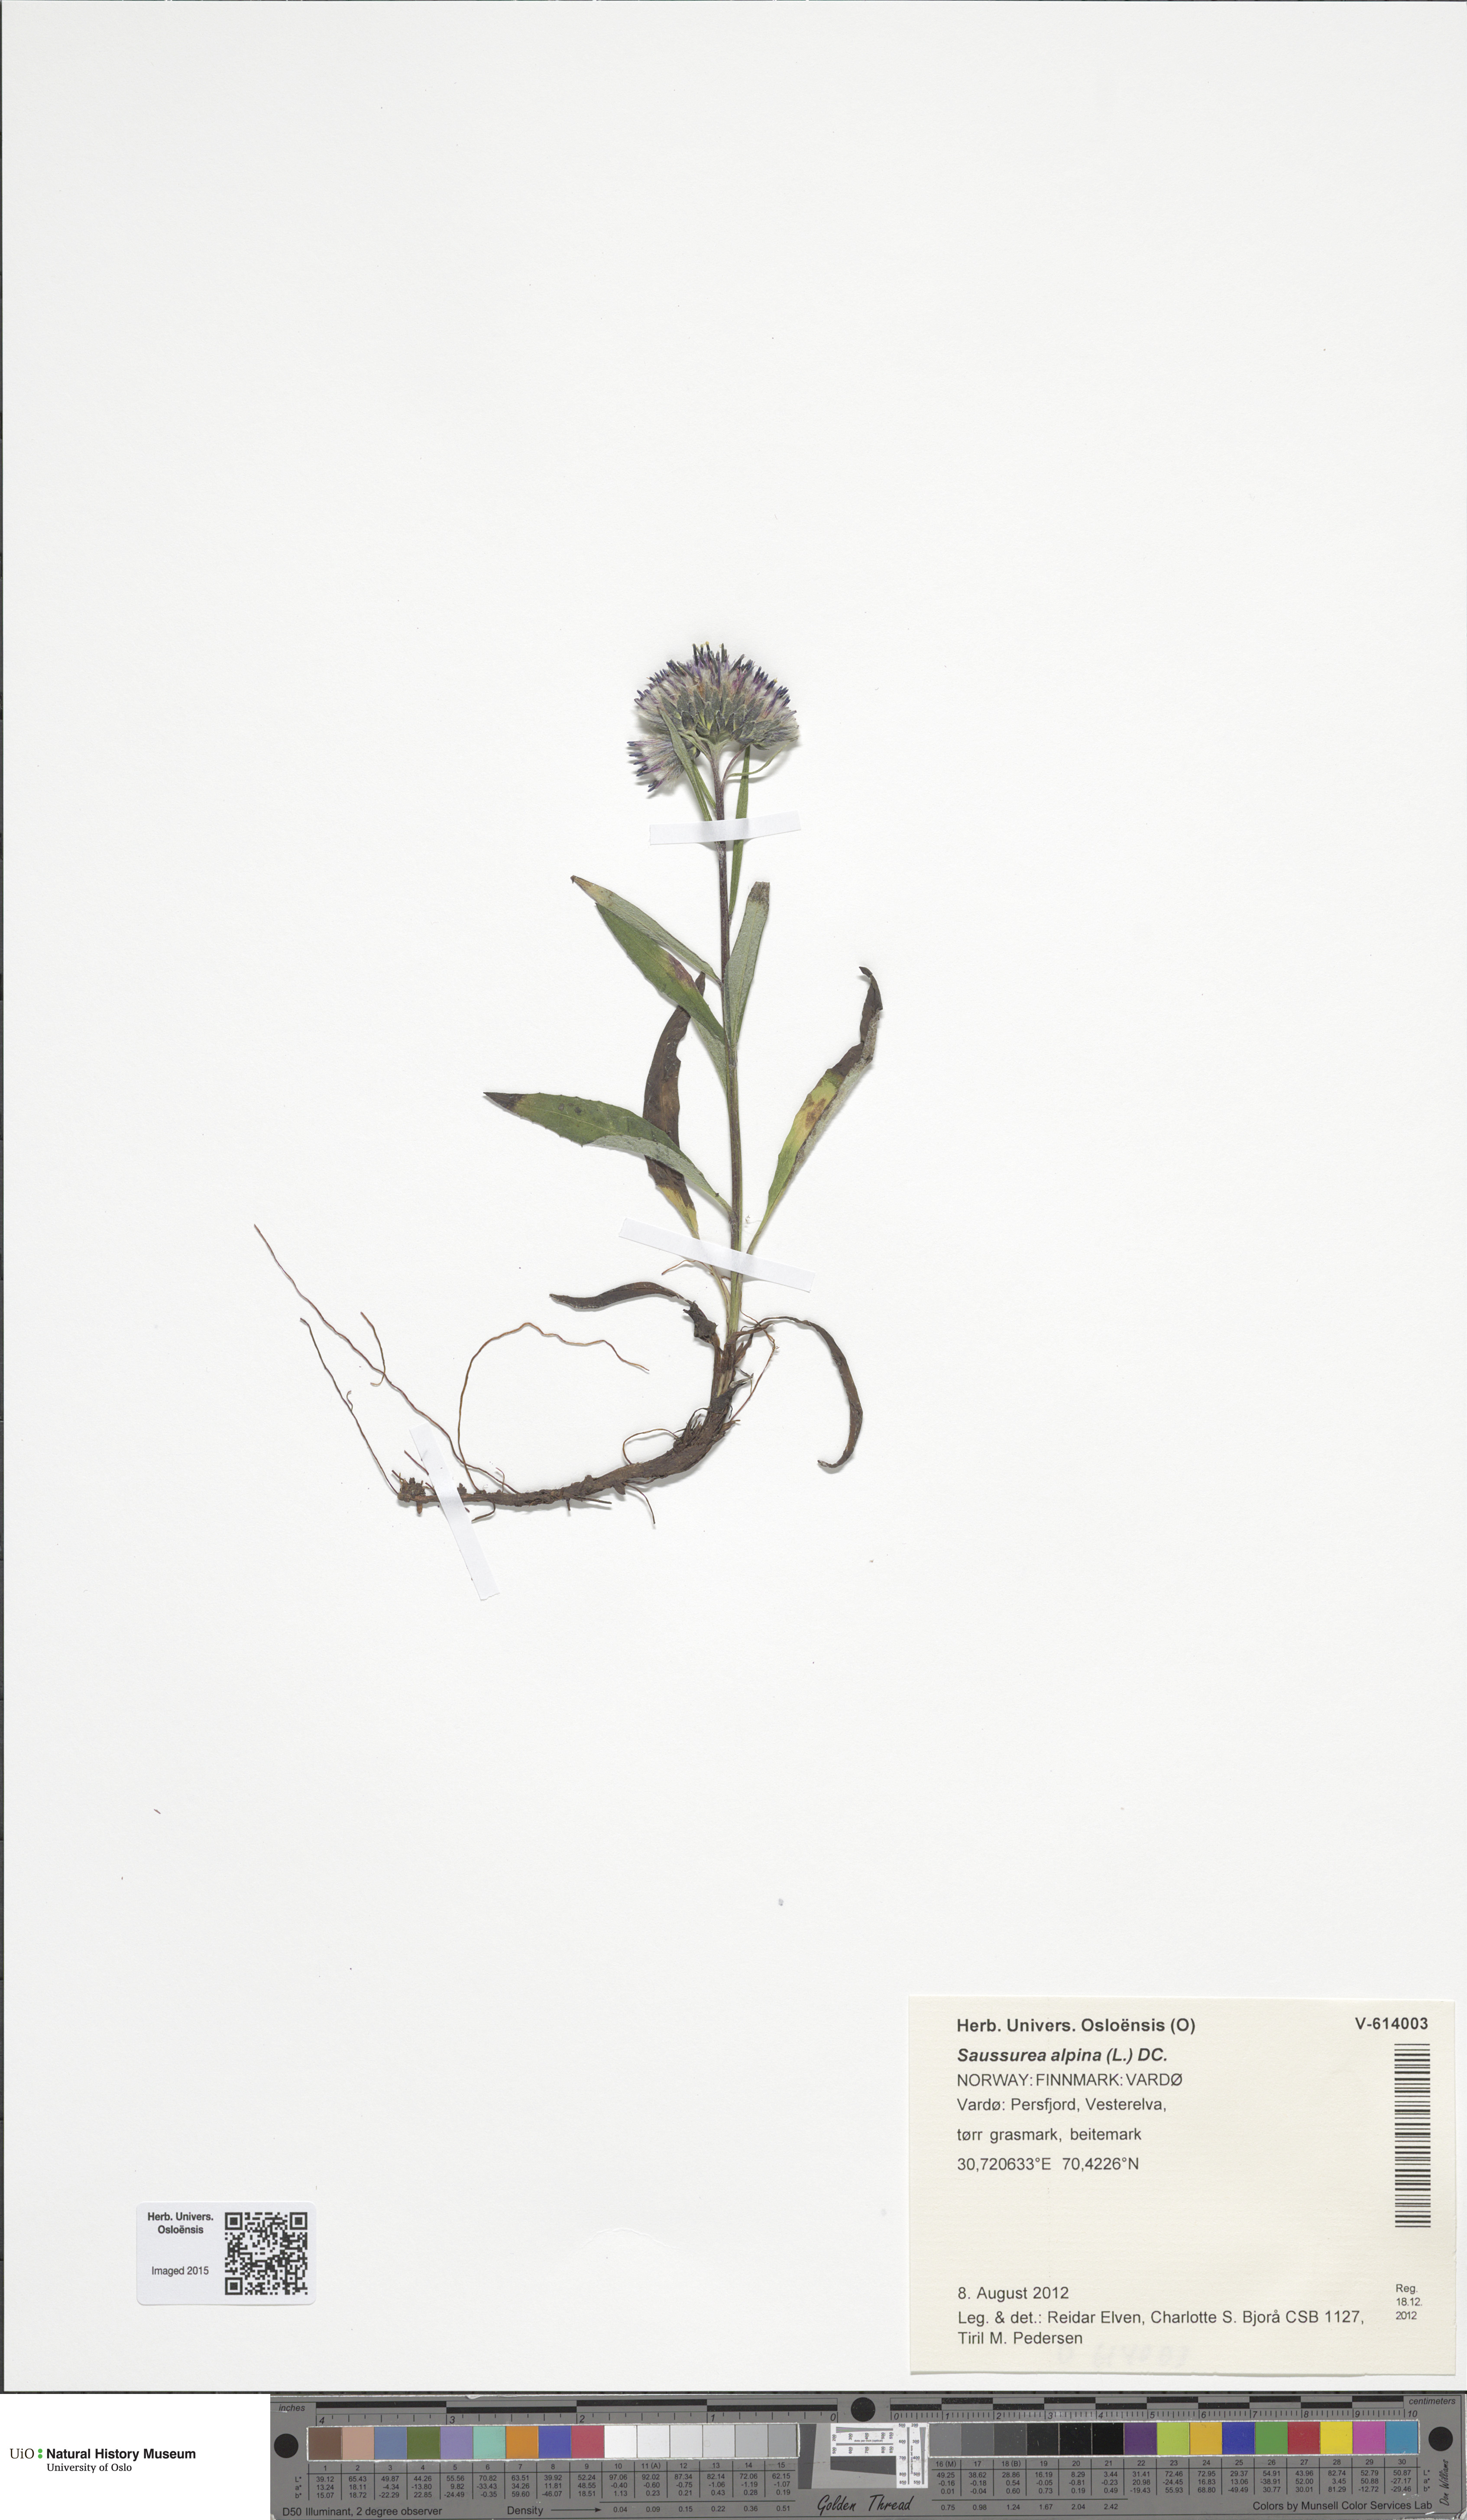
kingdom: Plantae
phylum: Tracheophyta
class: Magnoliopsida
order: Asterales
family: Asteraceae
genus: Saussurea
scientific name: Saussurea alpina
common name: Alpine saw-wort
